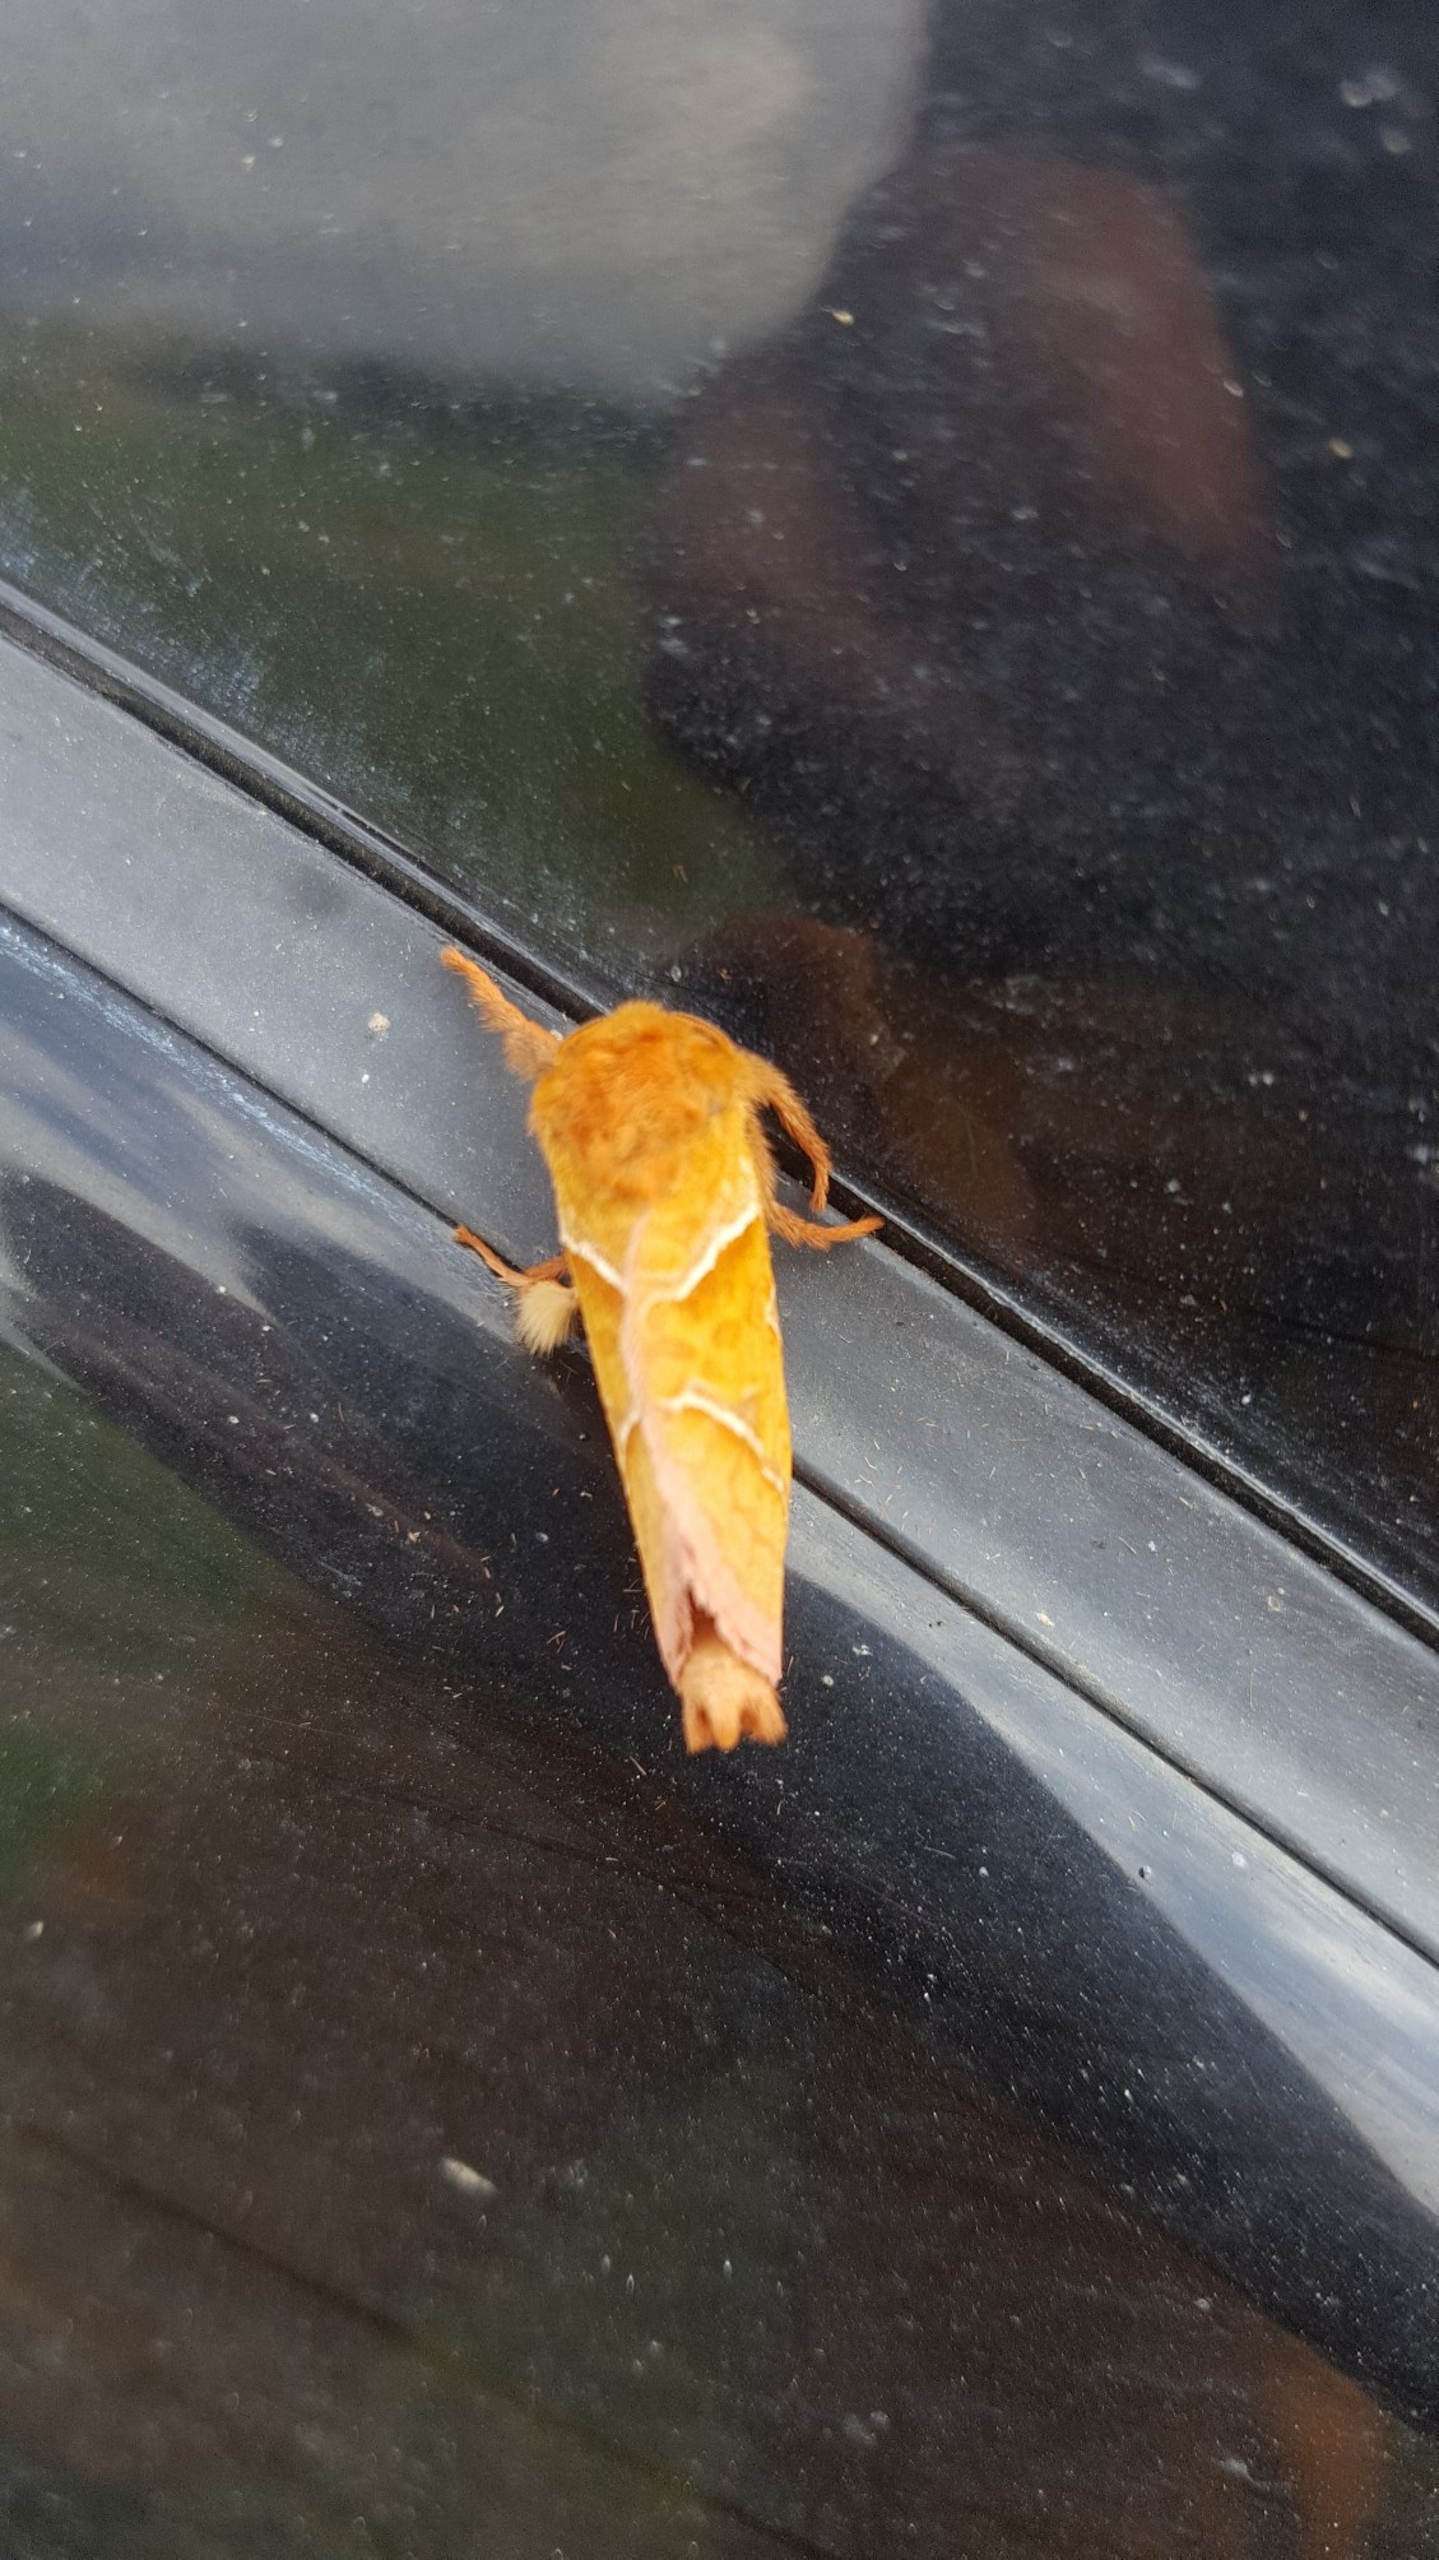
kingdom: Animalia
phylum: Arthropoda
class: Insecta
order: Lepidoptera
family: Hepialidae
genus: Triodia
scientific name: Triodia sylvina
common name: Skræpperodæder
